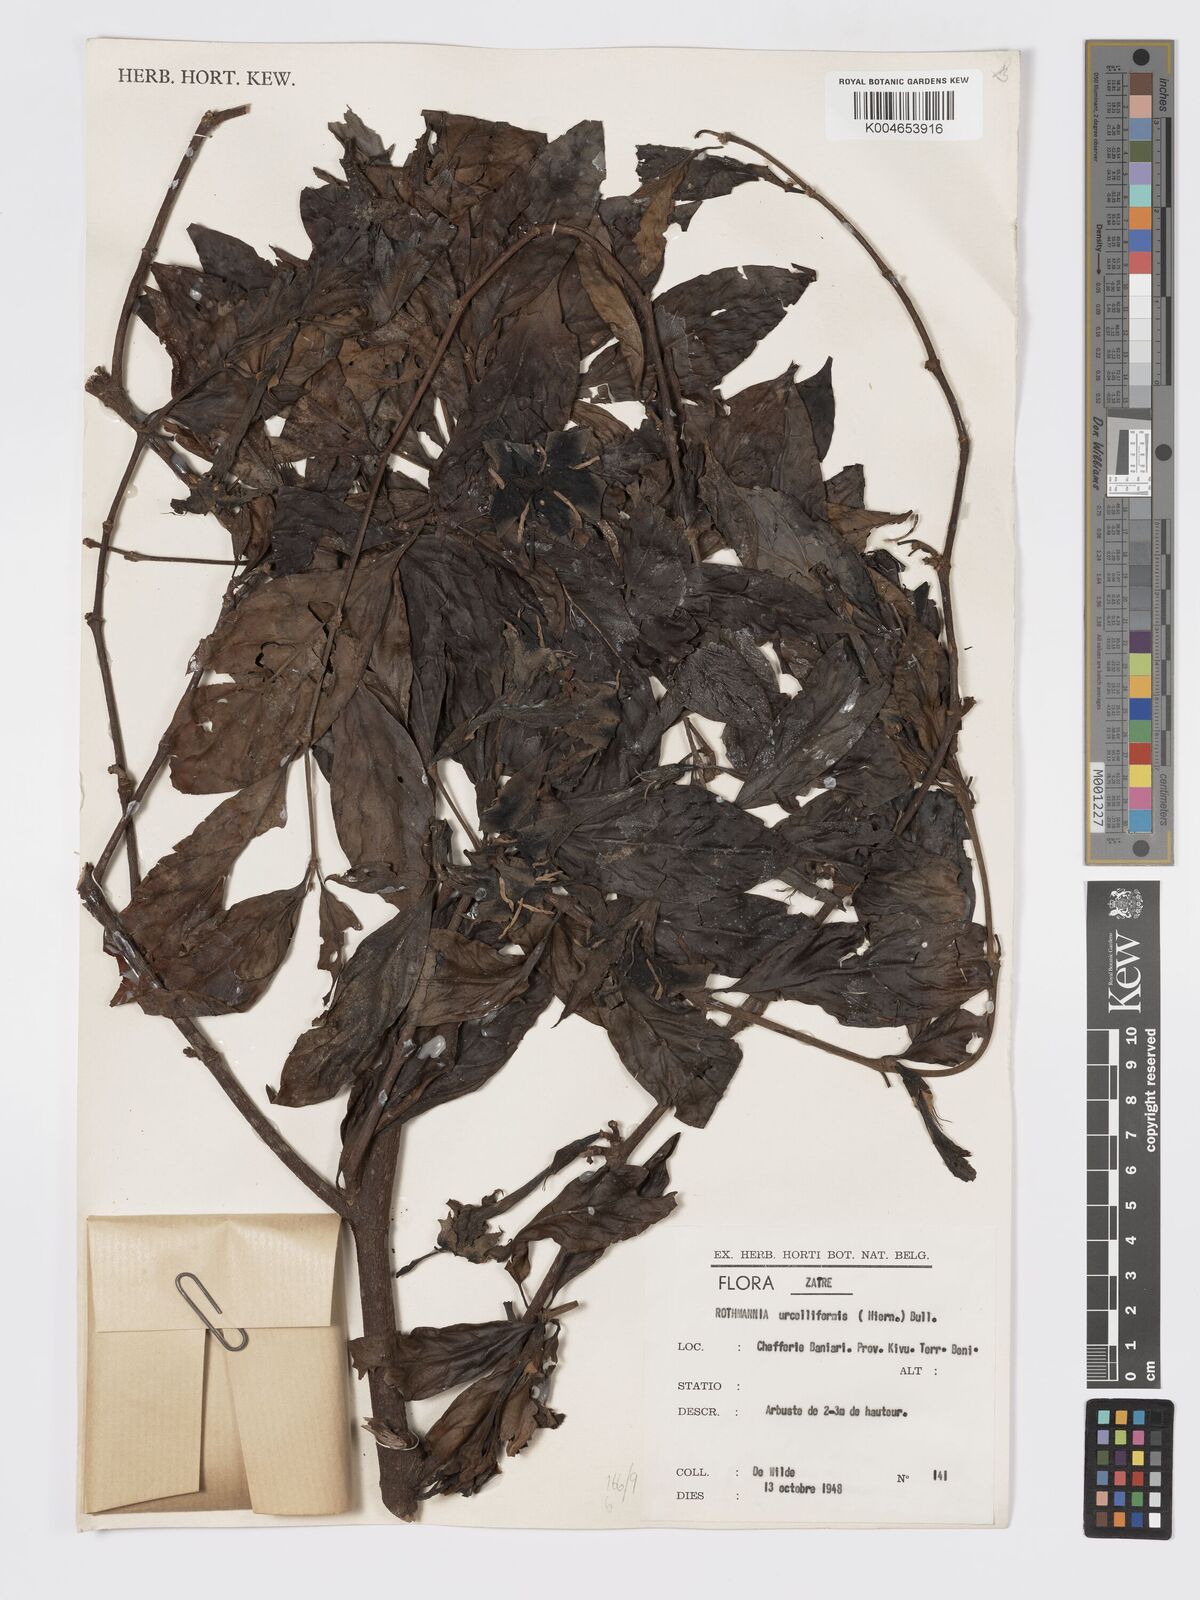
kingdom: Plantae
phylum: Tracheophyta
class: Magnoliopsida
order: Gentianales
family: Rubiaceae
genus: Rothmannia
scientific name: Rothmannia urcelliformis
